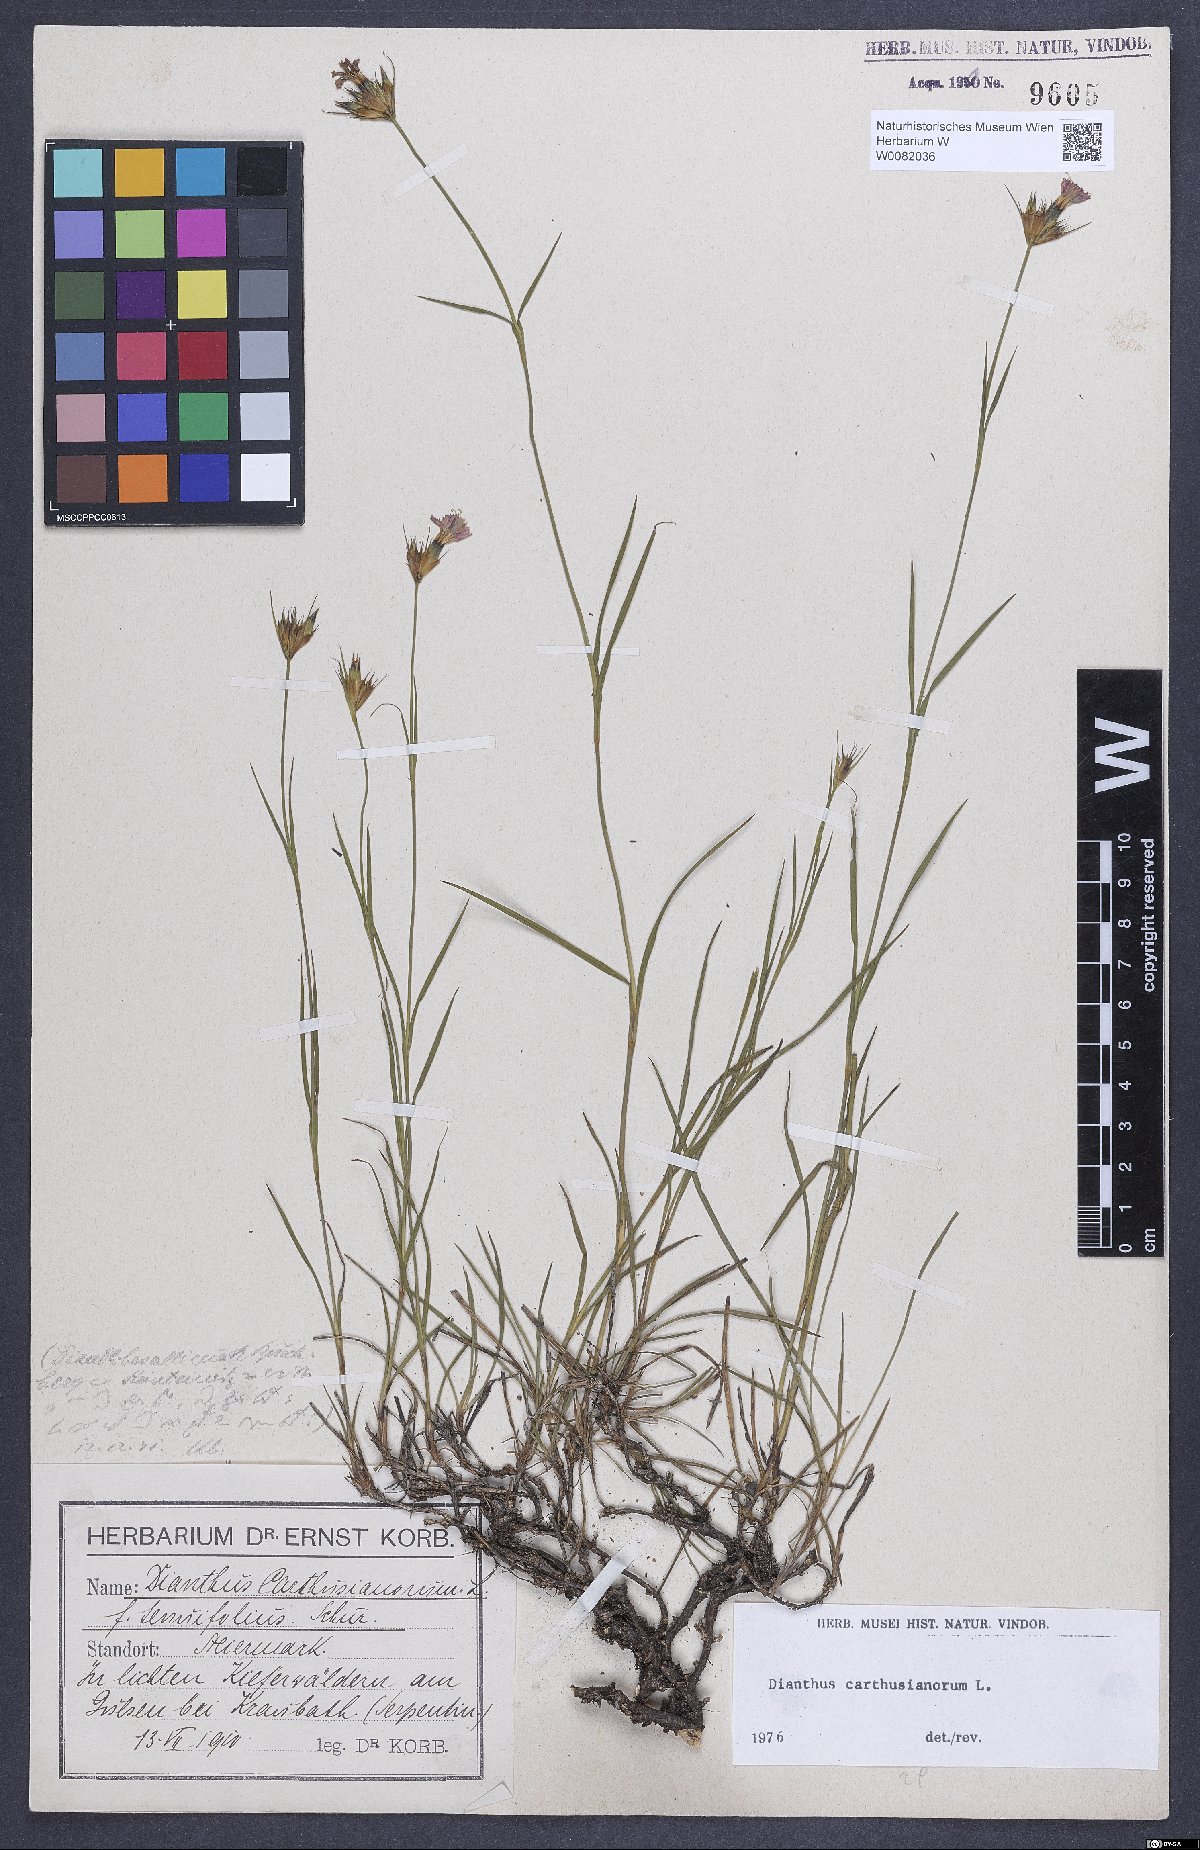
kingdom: Plantae
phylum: Tracheophyta
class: Magnoliopsida
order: Caryophyllales
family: Caryophyllaceae
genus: Dianthus
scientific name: Dianthus carthusianorum
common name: Carthusian pink
